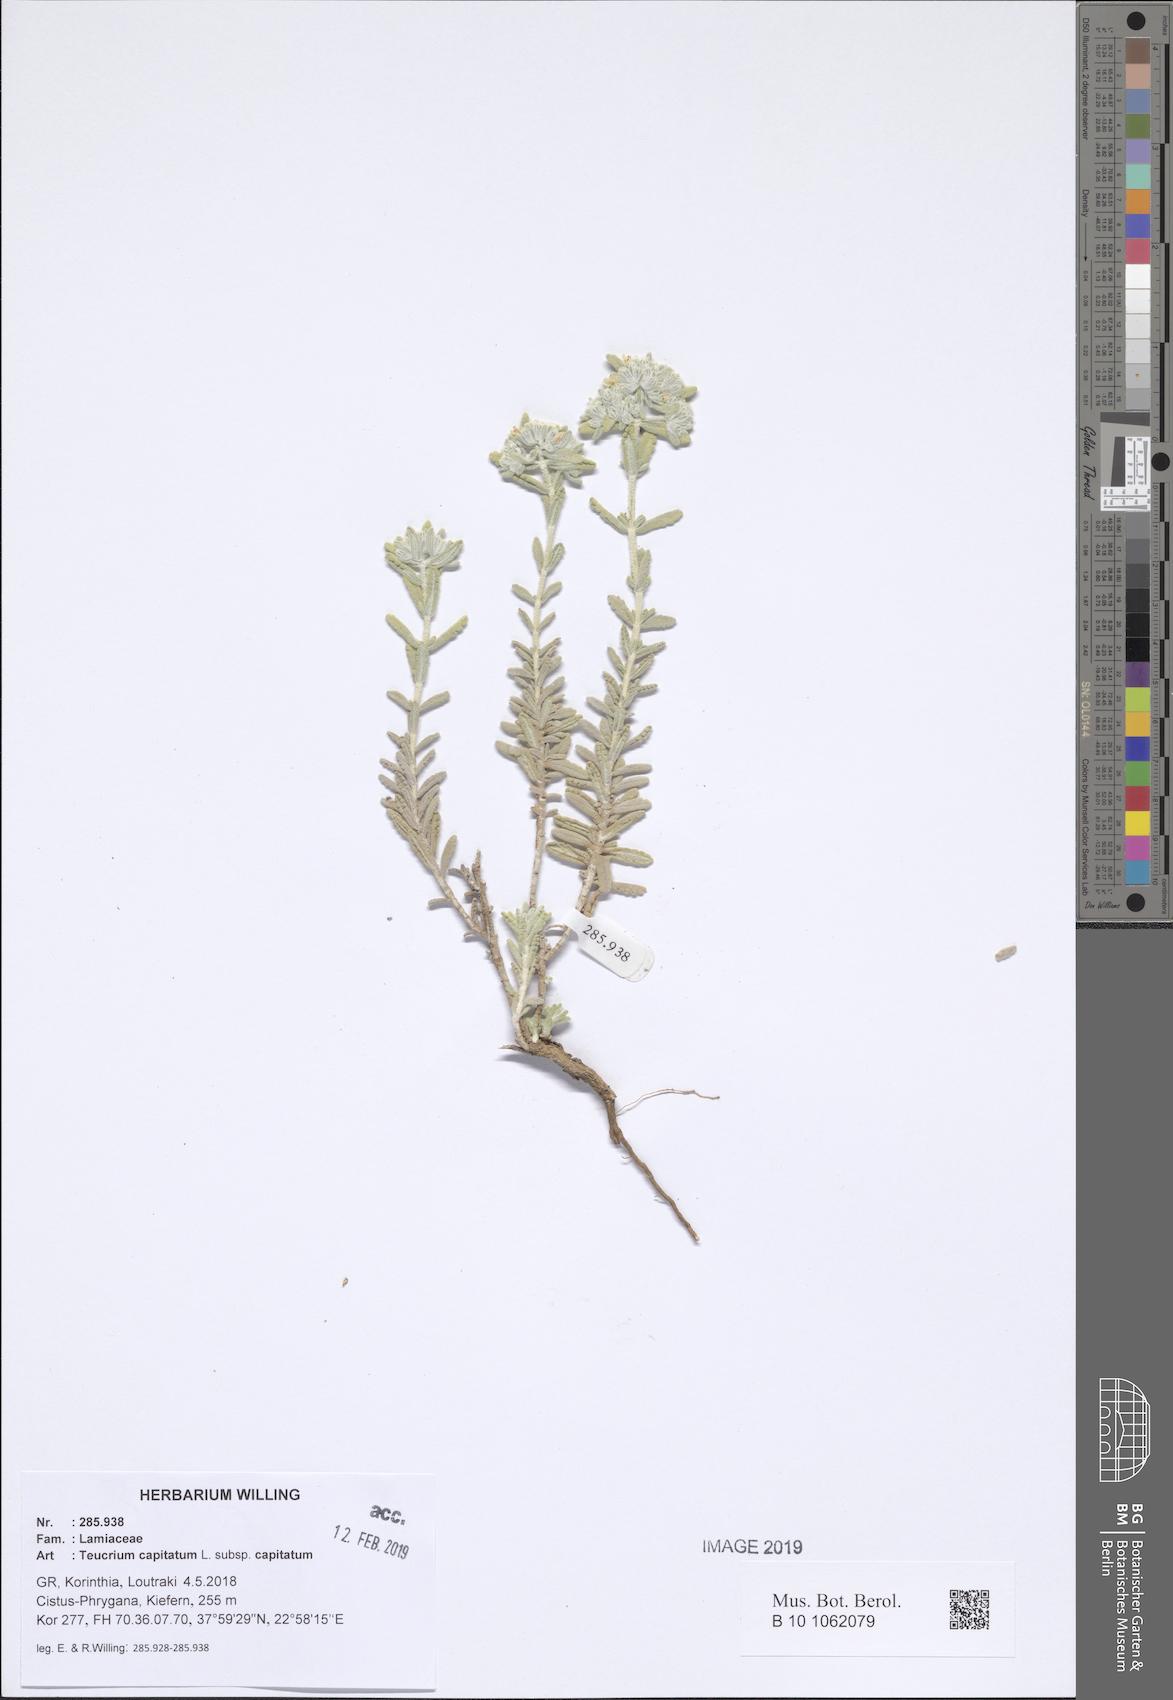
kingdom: Plantae
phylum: Tracheophyta
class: Magnoliopsida
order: Lamiales
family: Lamiaceae
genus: Teucrium
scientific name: Teucrium capitatum
